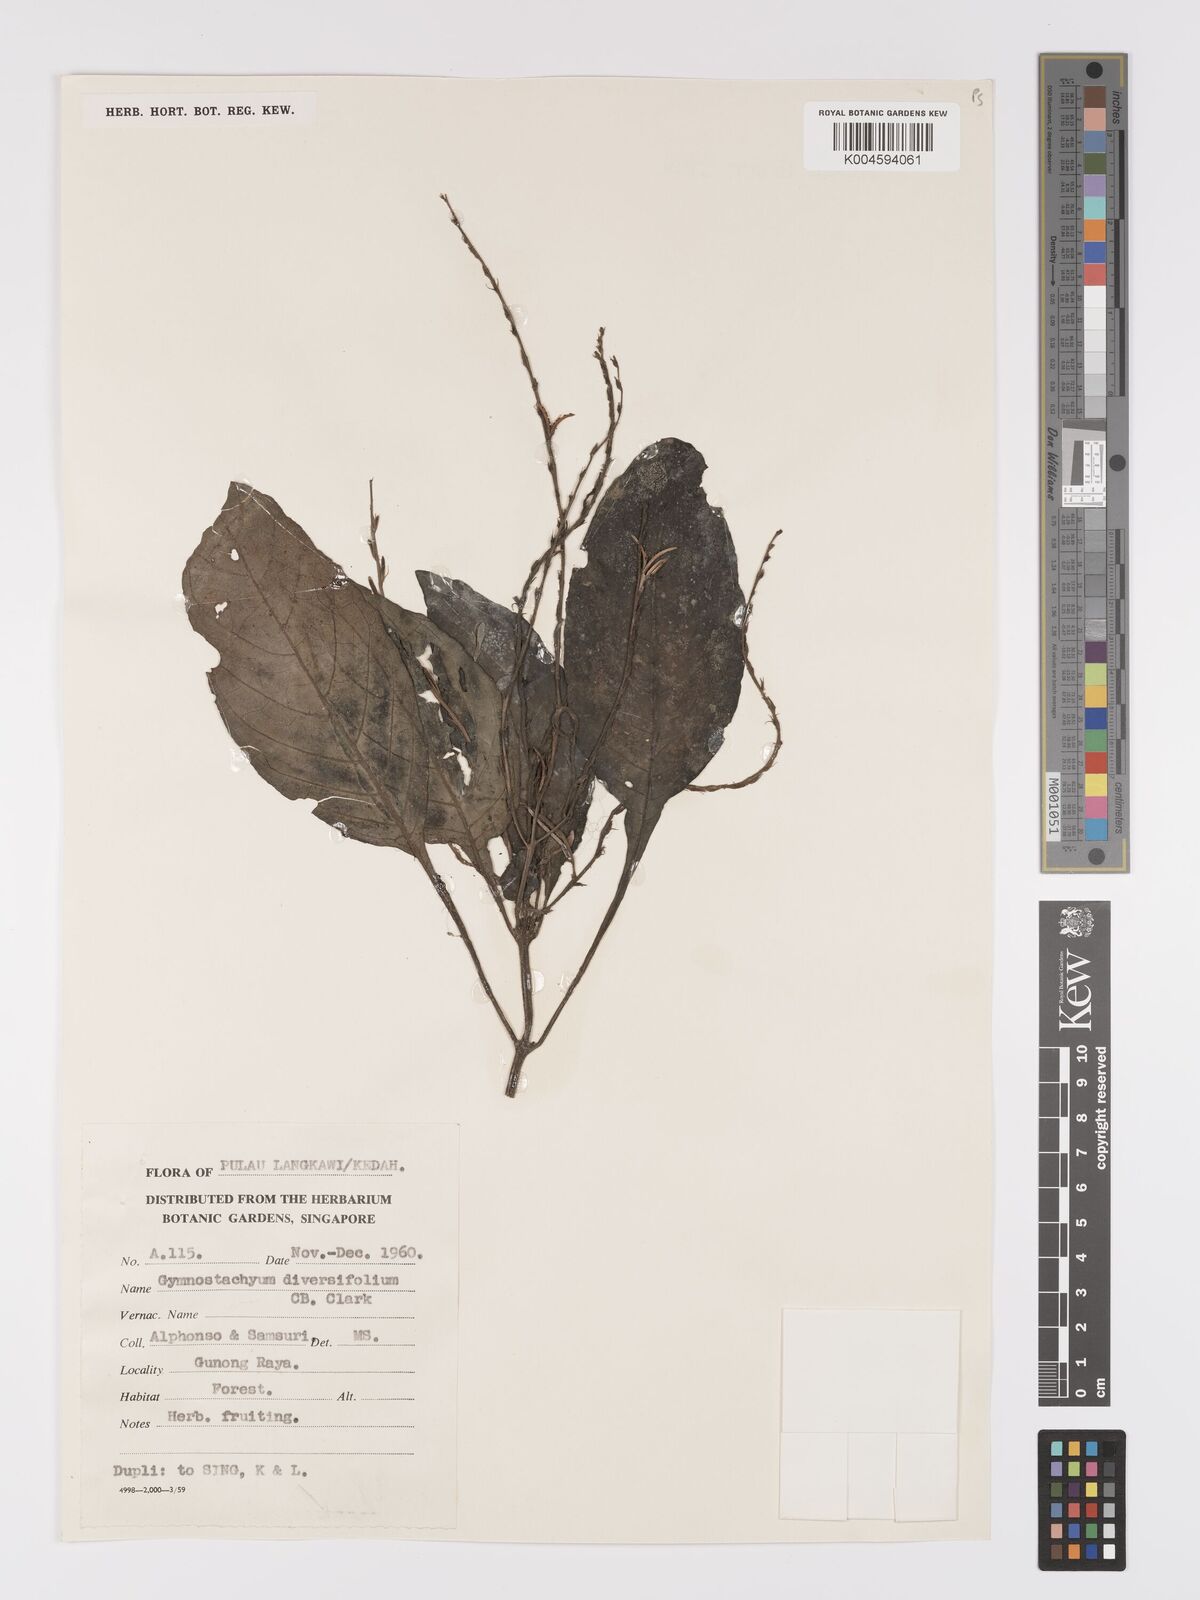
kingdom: Plantae
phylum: Tracheophyta
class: Magnoliopsida
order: Lamiales
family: Acanthaceae
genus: Gymnostachyum
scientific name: Gymnostachyum diversifolium
